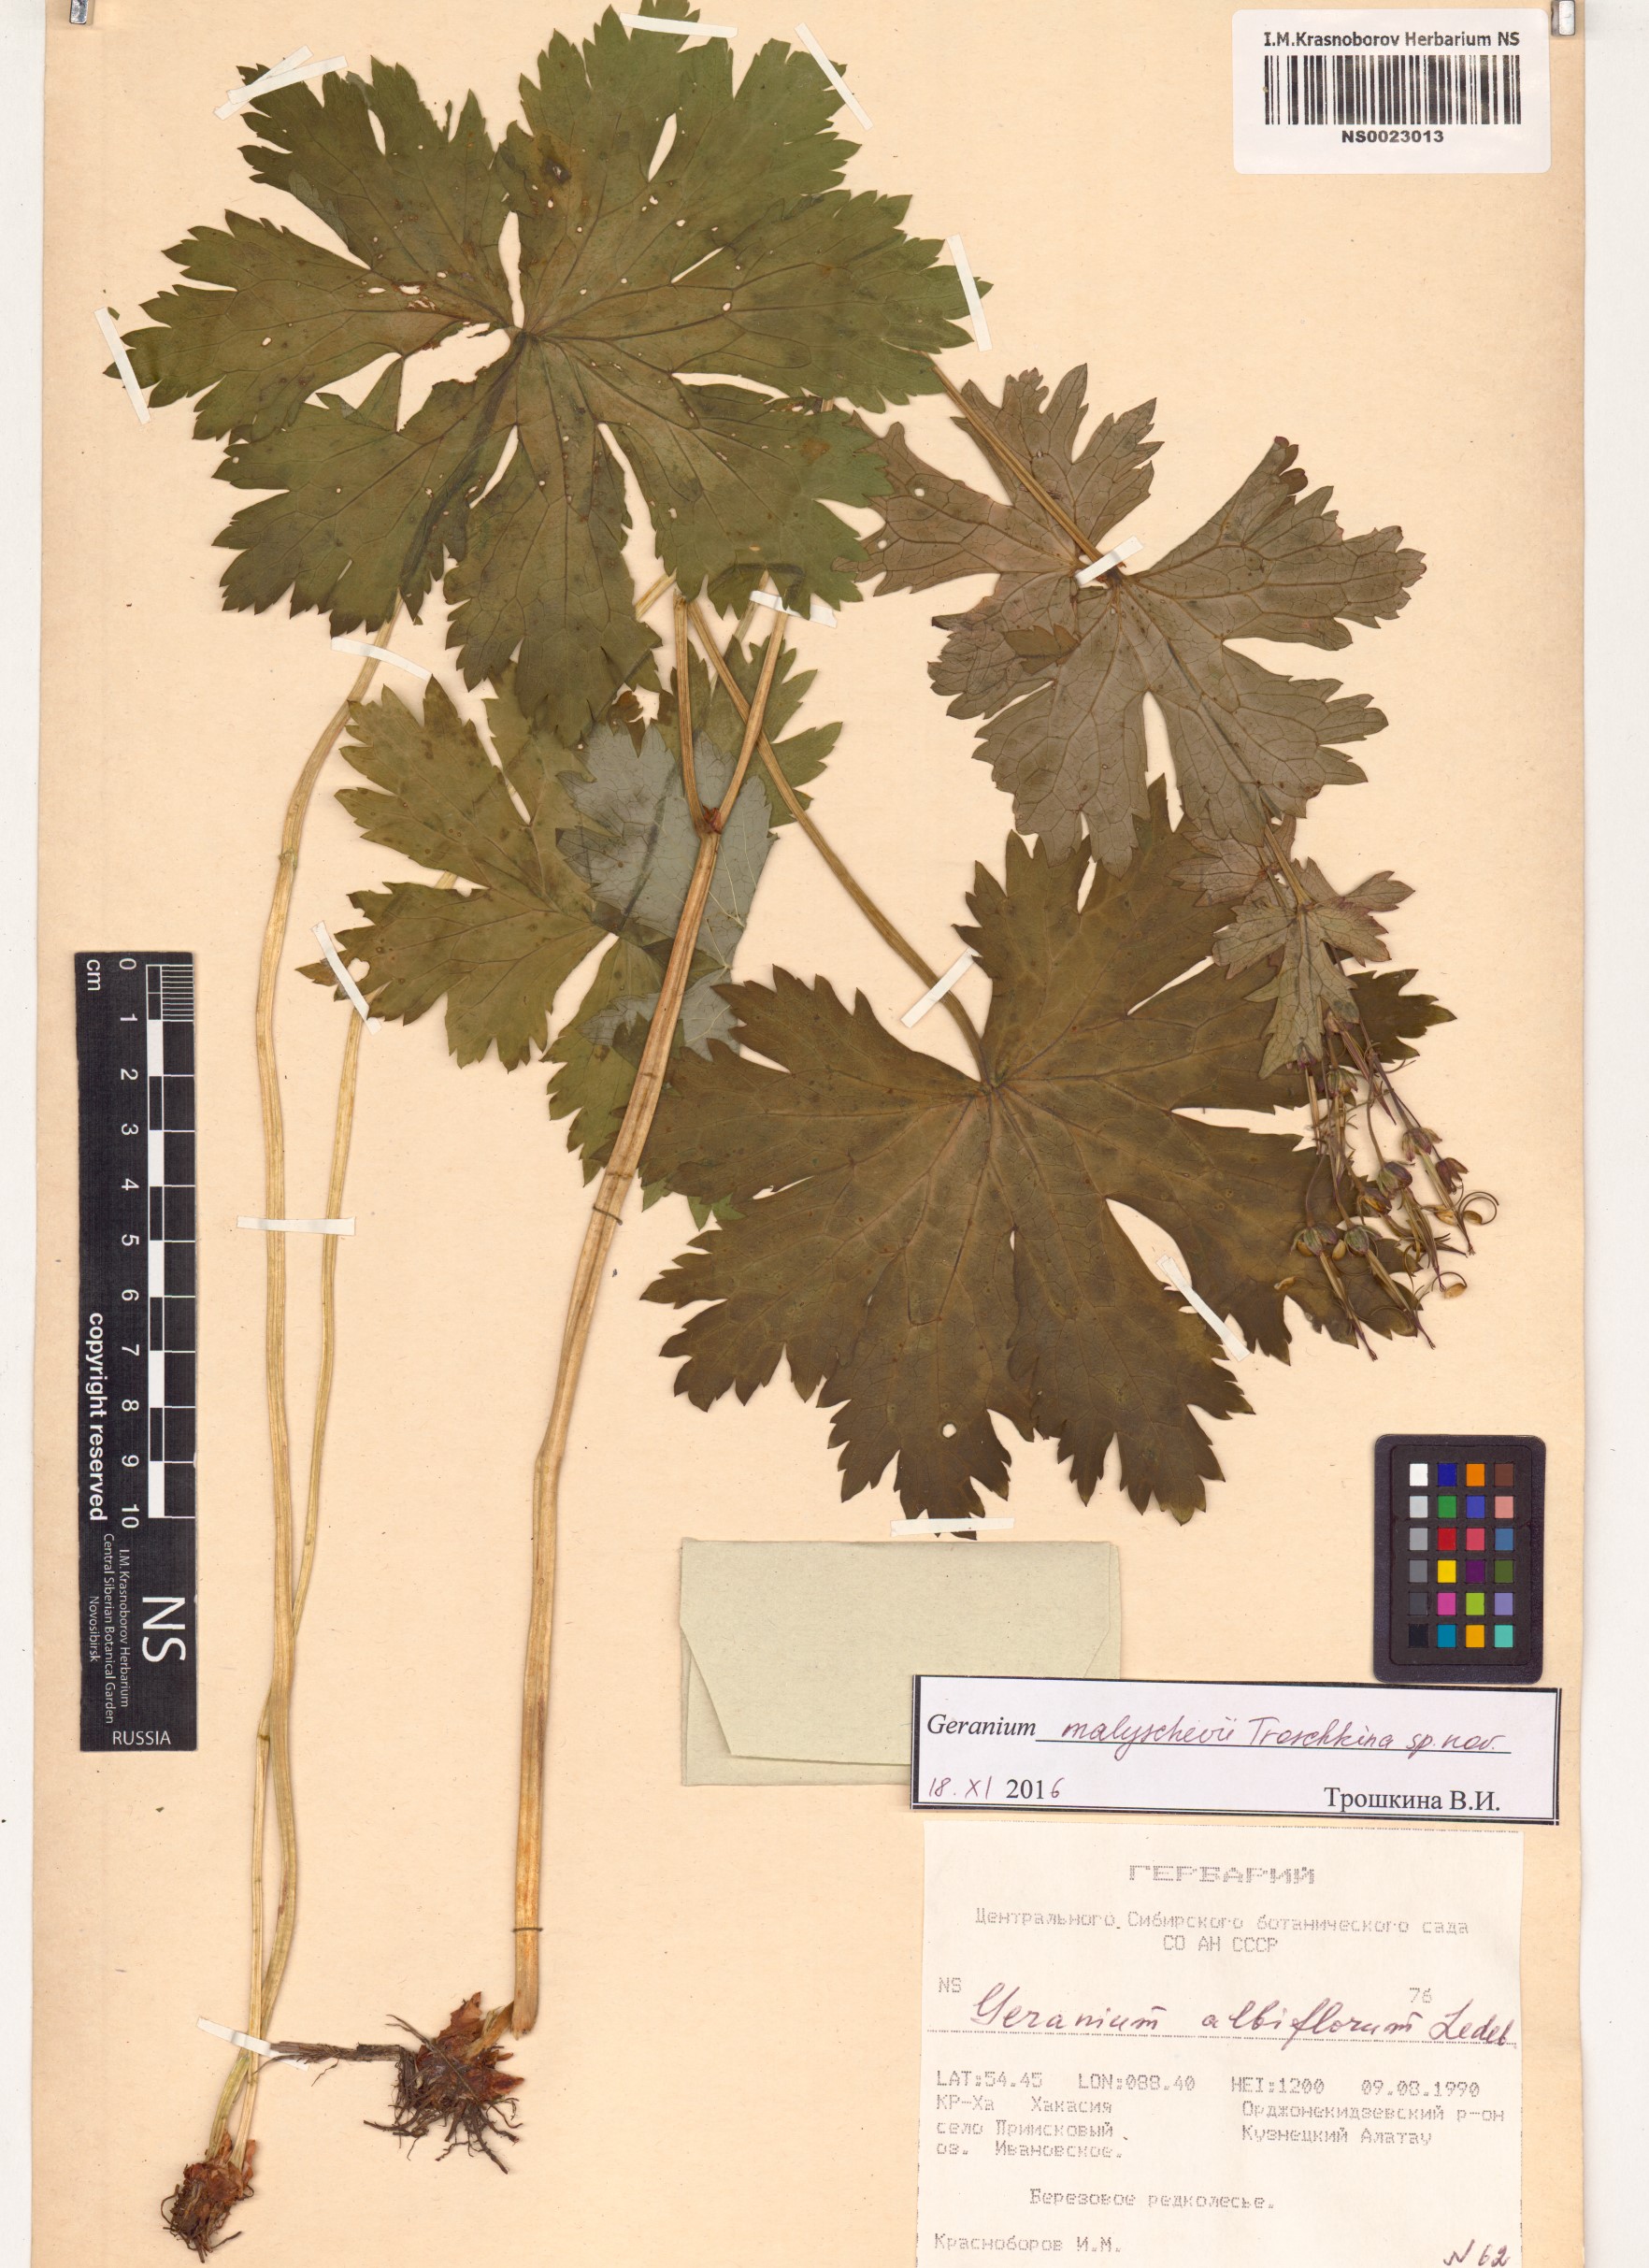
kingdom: Plantae
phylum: Tracheophyta
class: Magnoliopsida
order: Geraniales
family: Geraniaceae
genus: Geranium
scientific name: Geranium malyschevii
